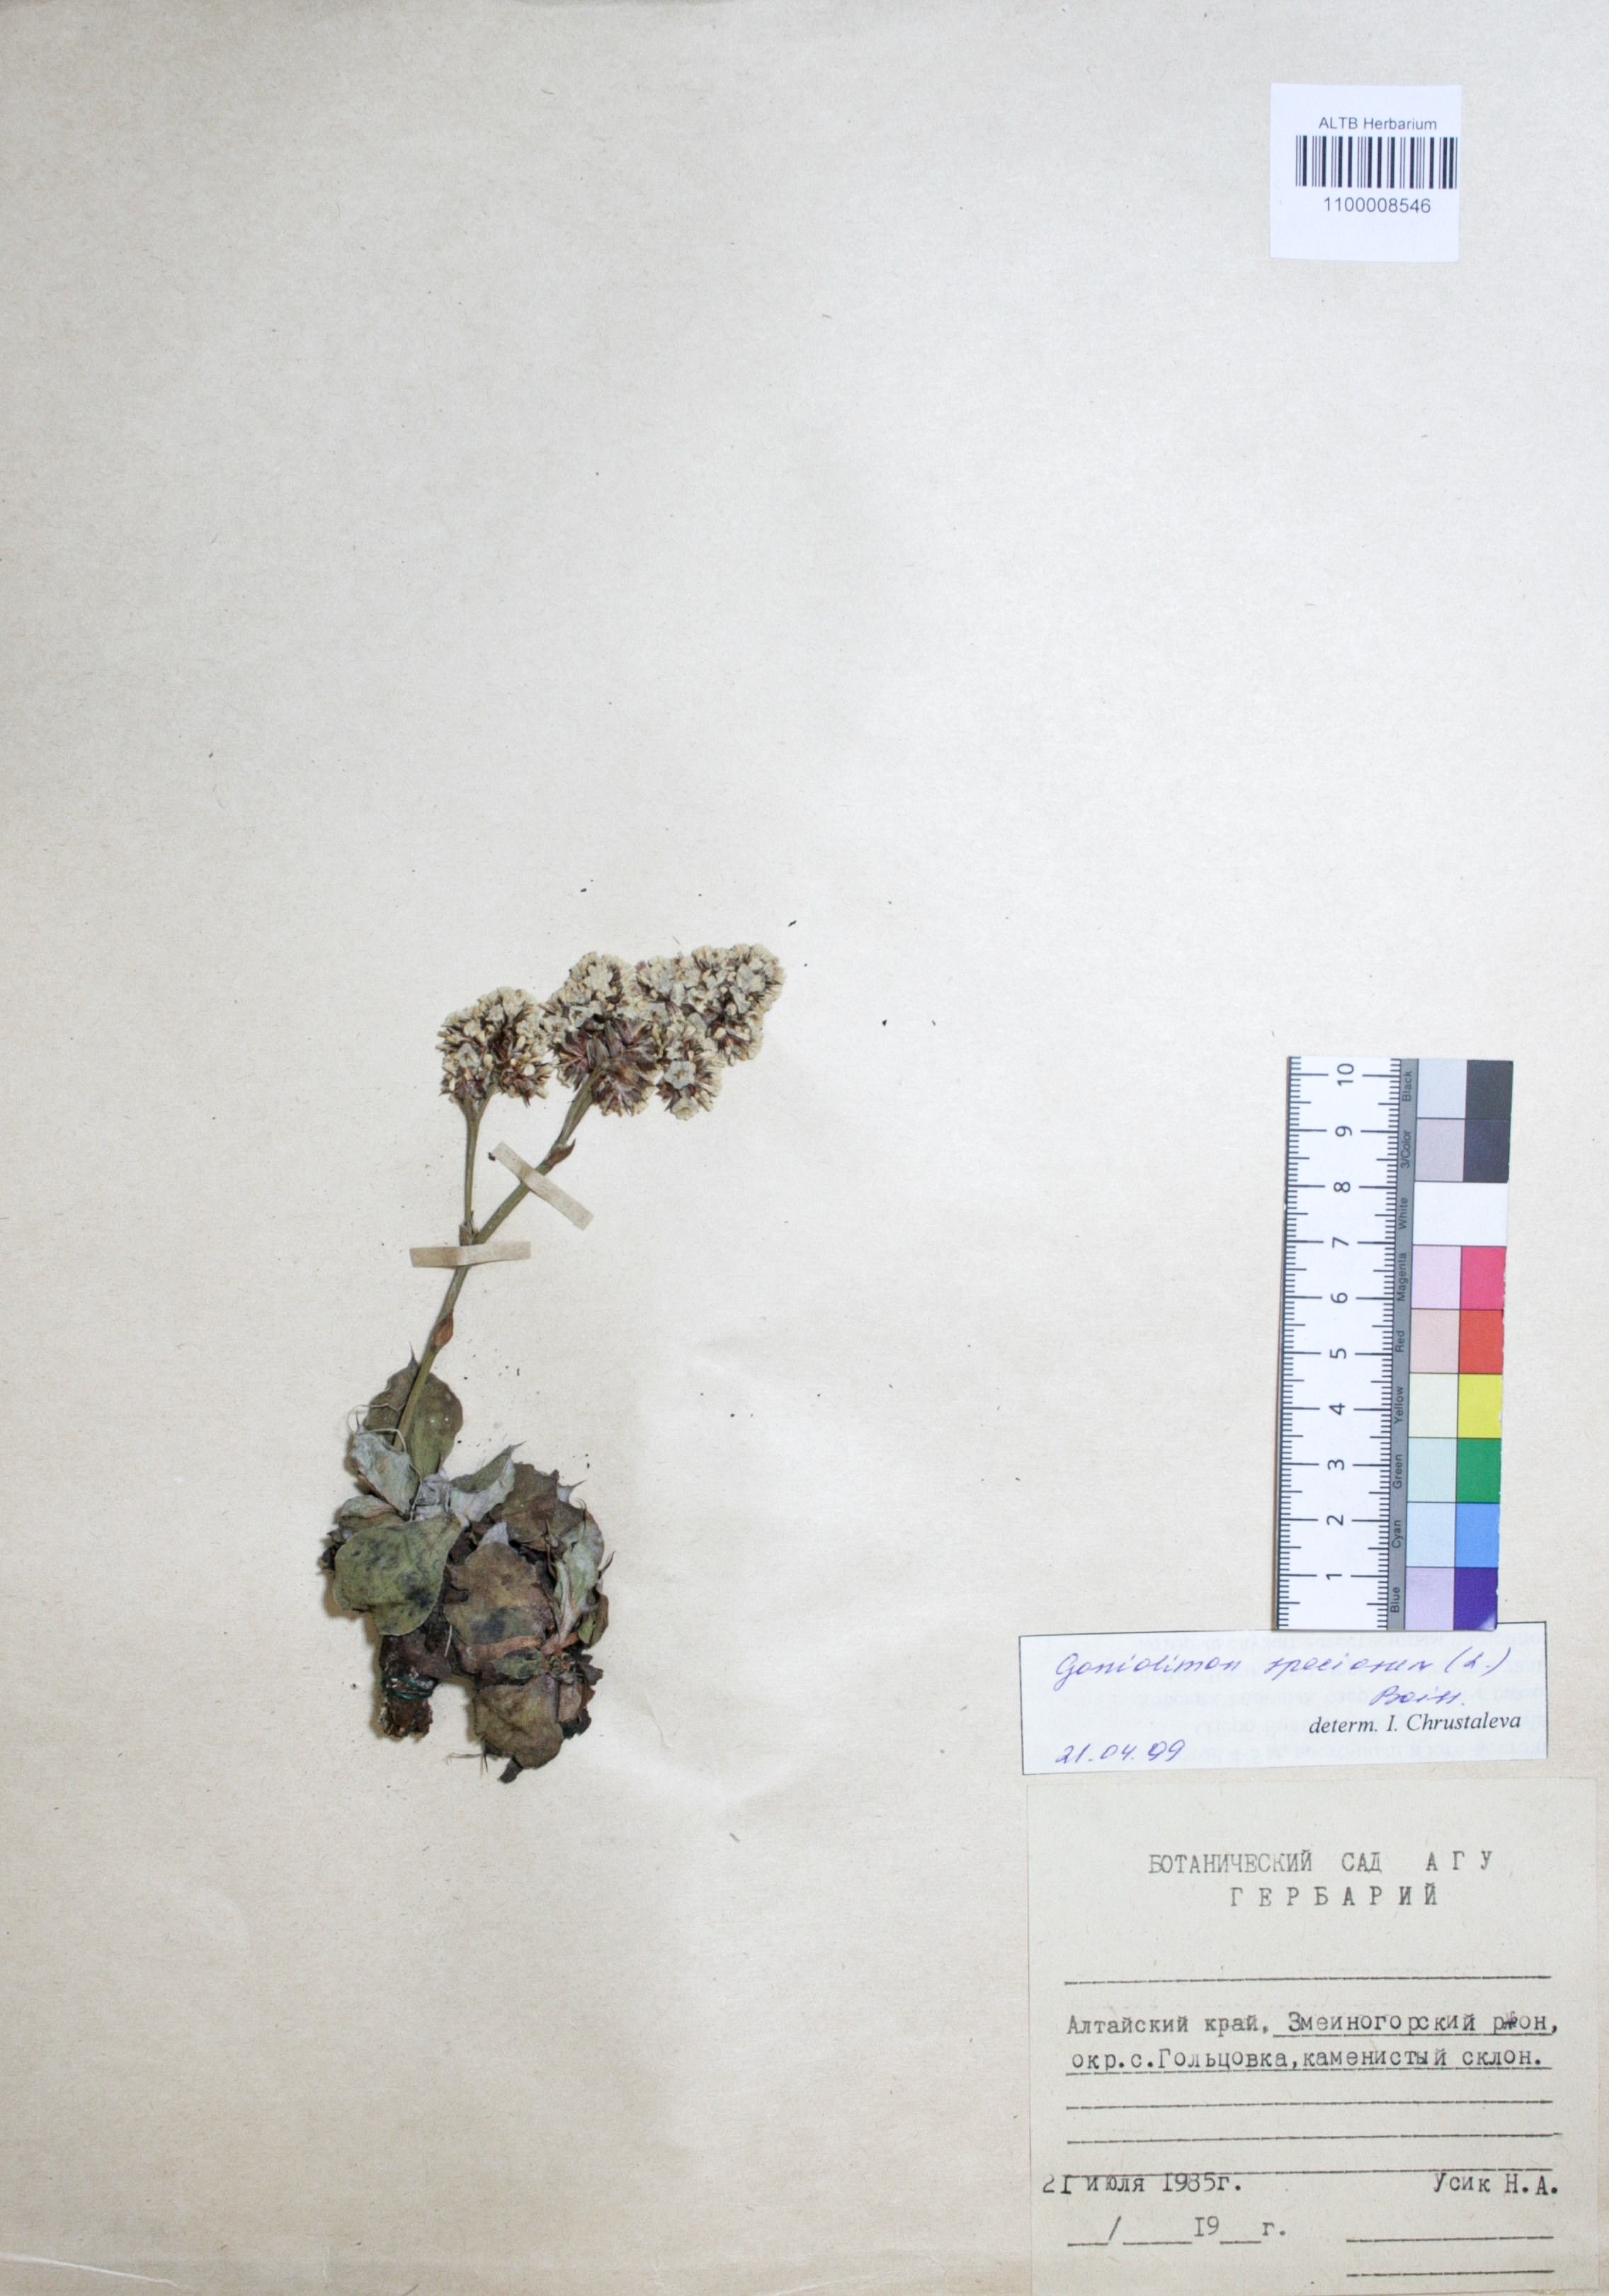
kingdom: Plantae
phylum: Tracheophyta
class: Magnoliopsida
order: Caryophyllales
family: Plumbaginaceae
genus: Goniolimon
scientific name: Goniolimon speciosum
